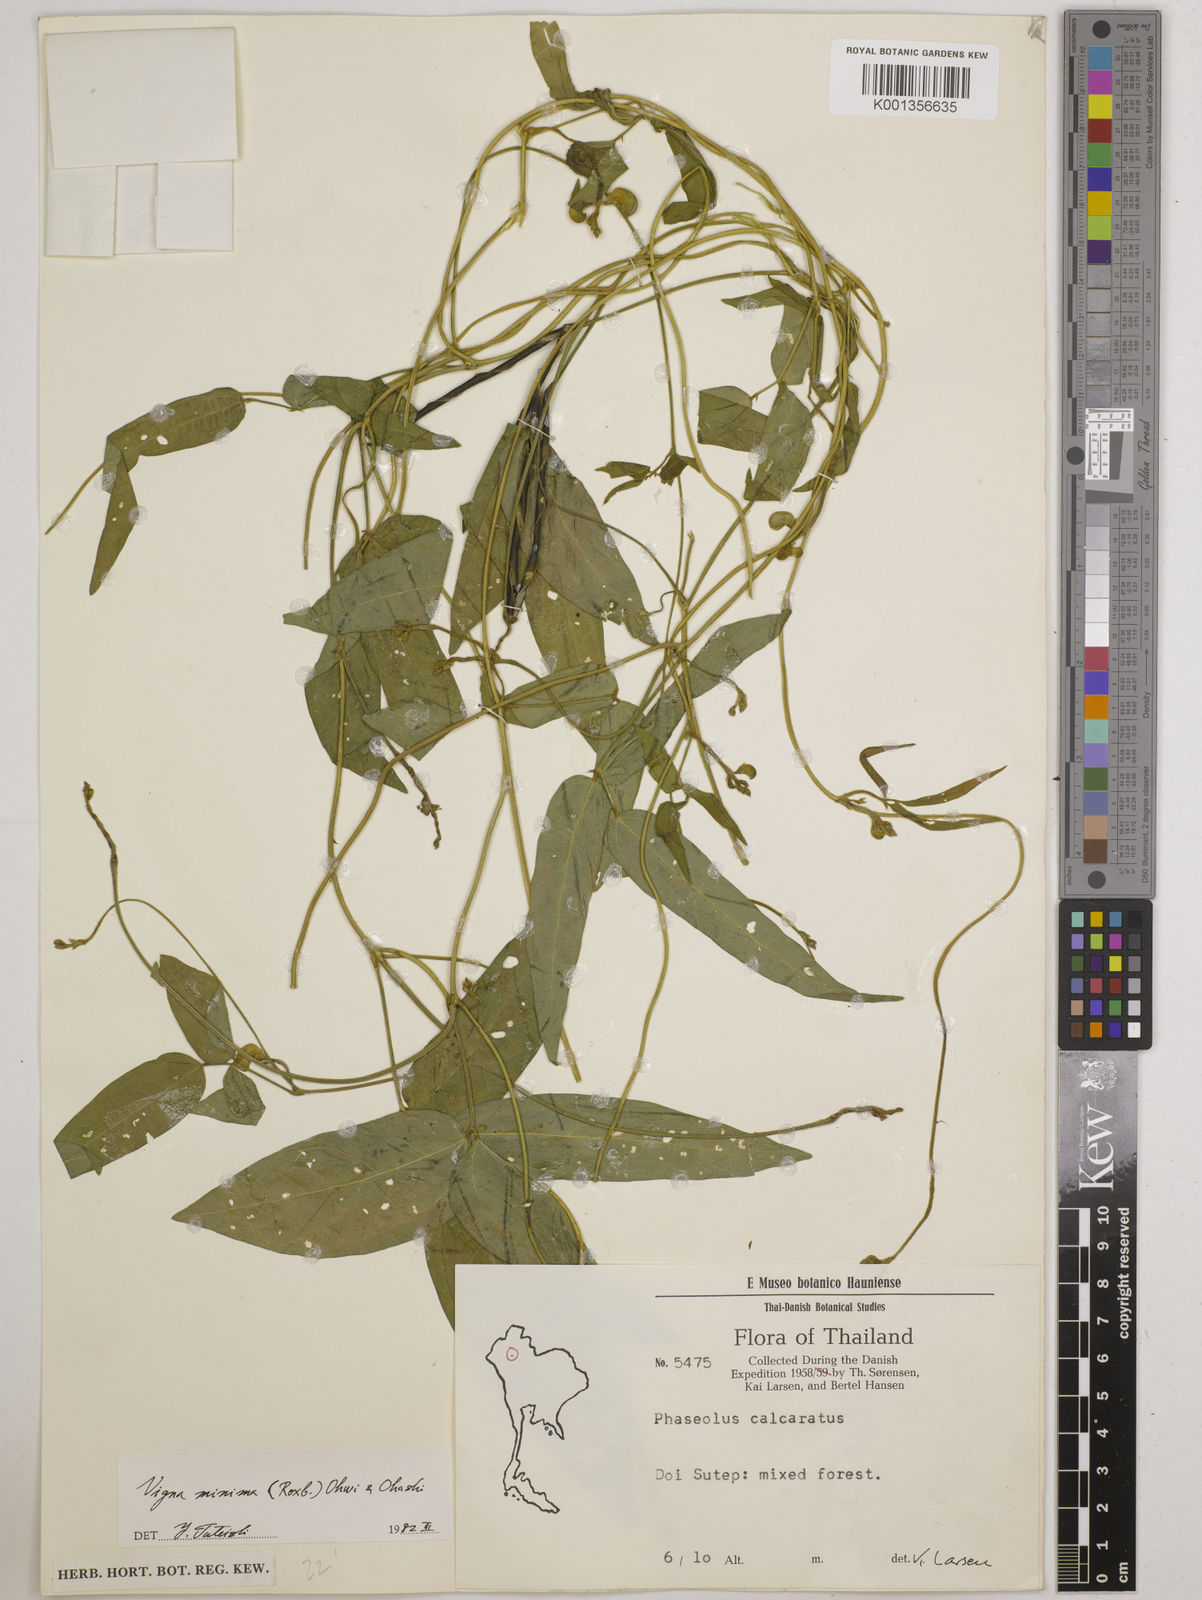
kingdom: Plantae
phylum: Tracheophyta
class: Magnoliopsida
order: Fabales
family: Fabaceae
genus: Vigna
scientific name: Vigna minima
